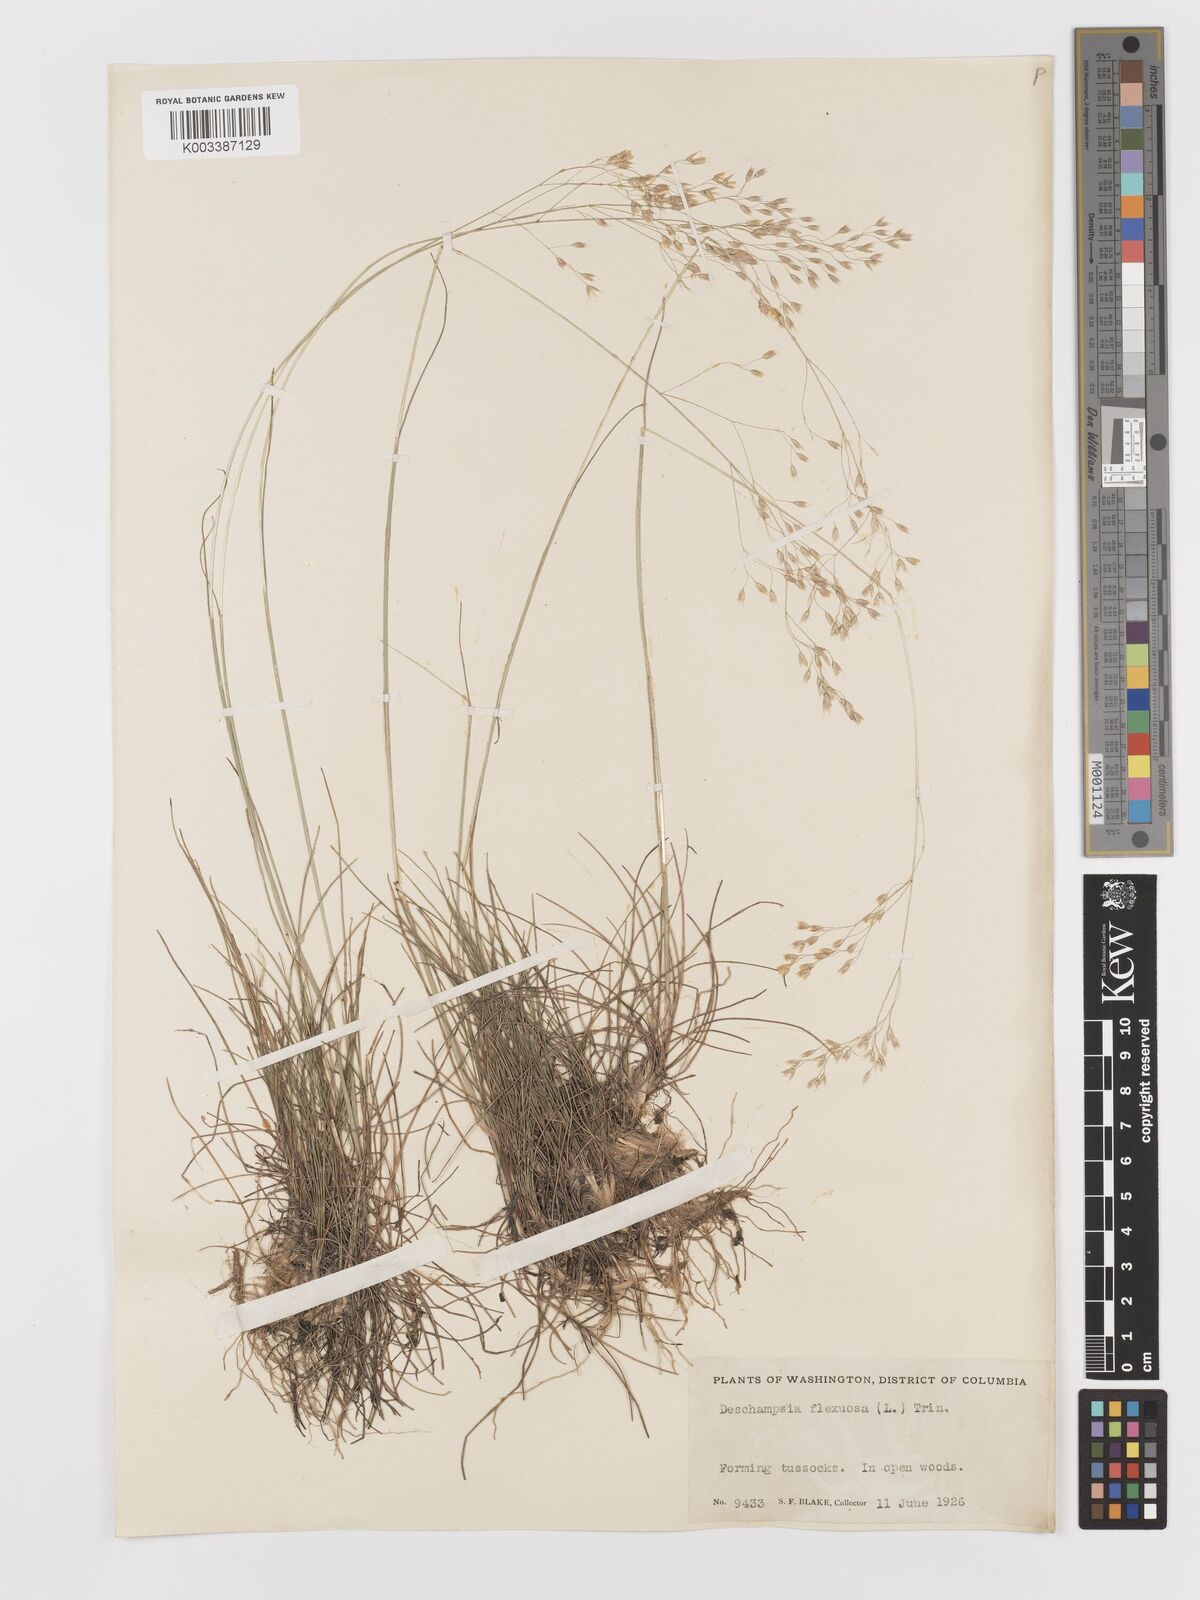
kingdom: Plantae
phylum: Tracheophyta
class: Liliopsida
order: Poales
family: Poaceae
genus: Avenella
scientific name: Avenella flexuosa
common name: Wavy hairgrass
